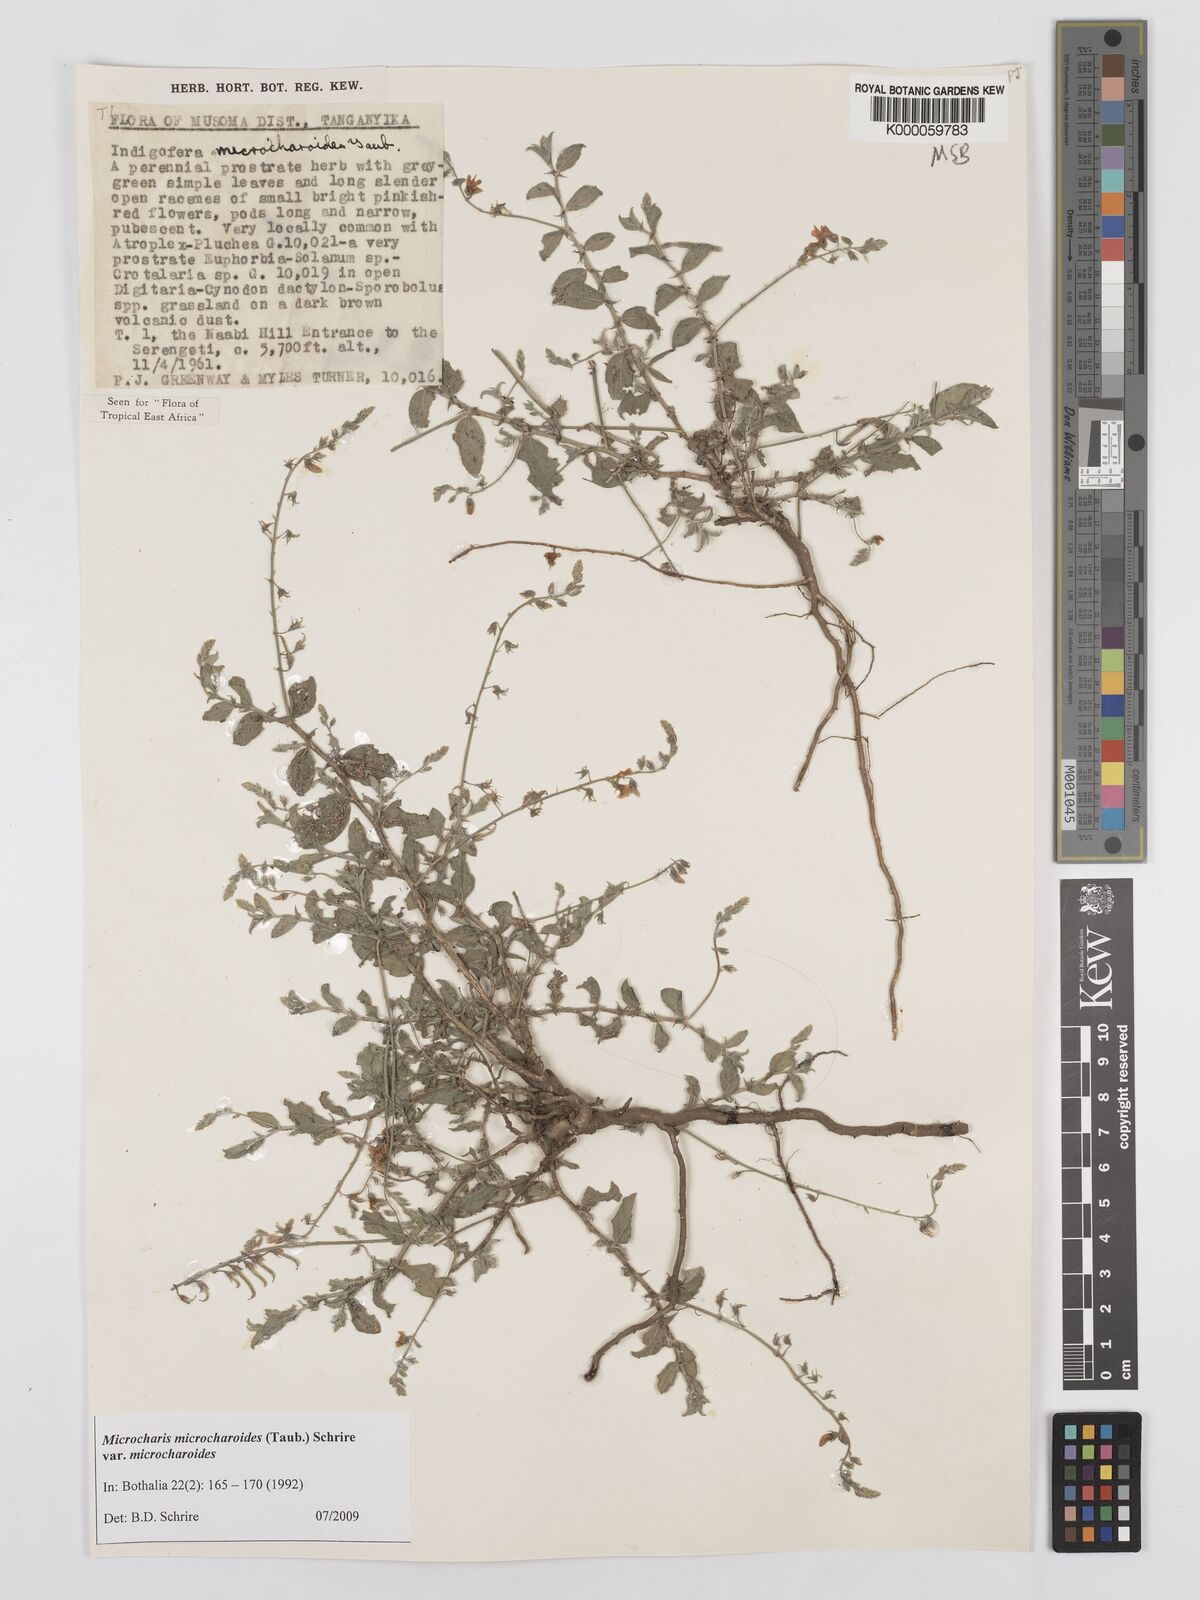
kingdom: Plantae
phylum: Tracheophyta
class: Magnoliopsida
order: Fabales
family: Fabaceae
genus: Microcharis
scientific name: Microcharis microcharoides
